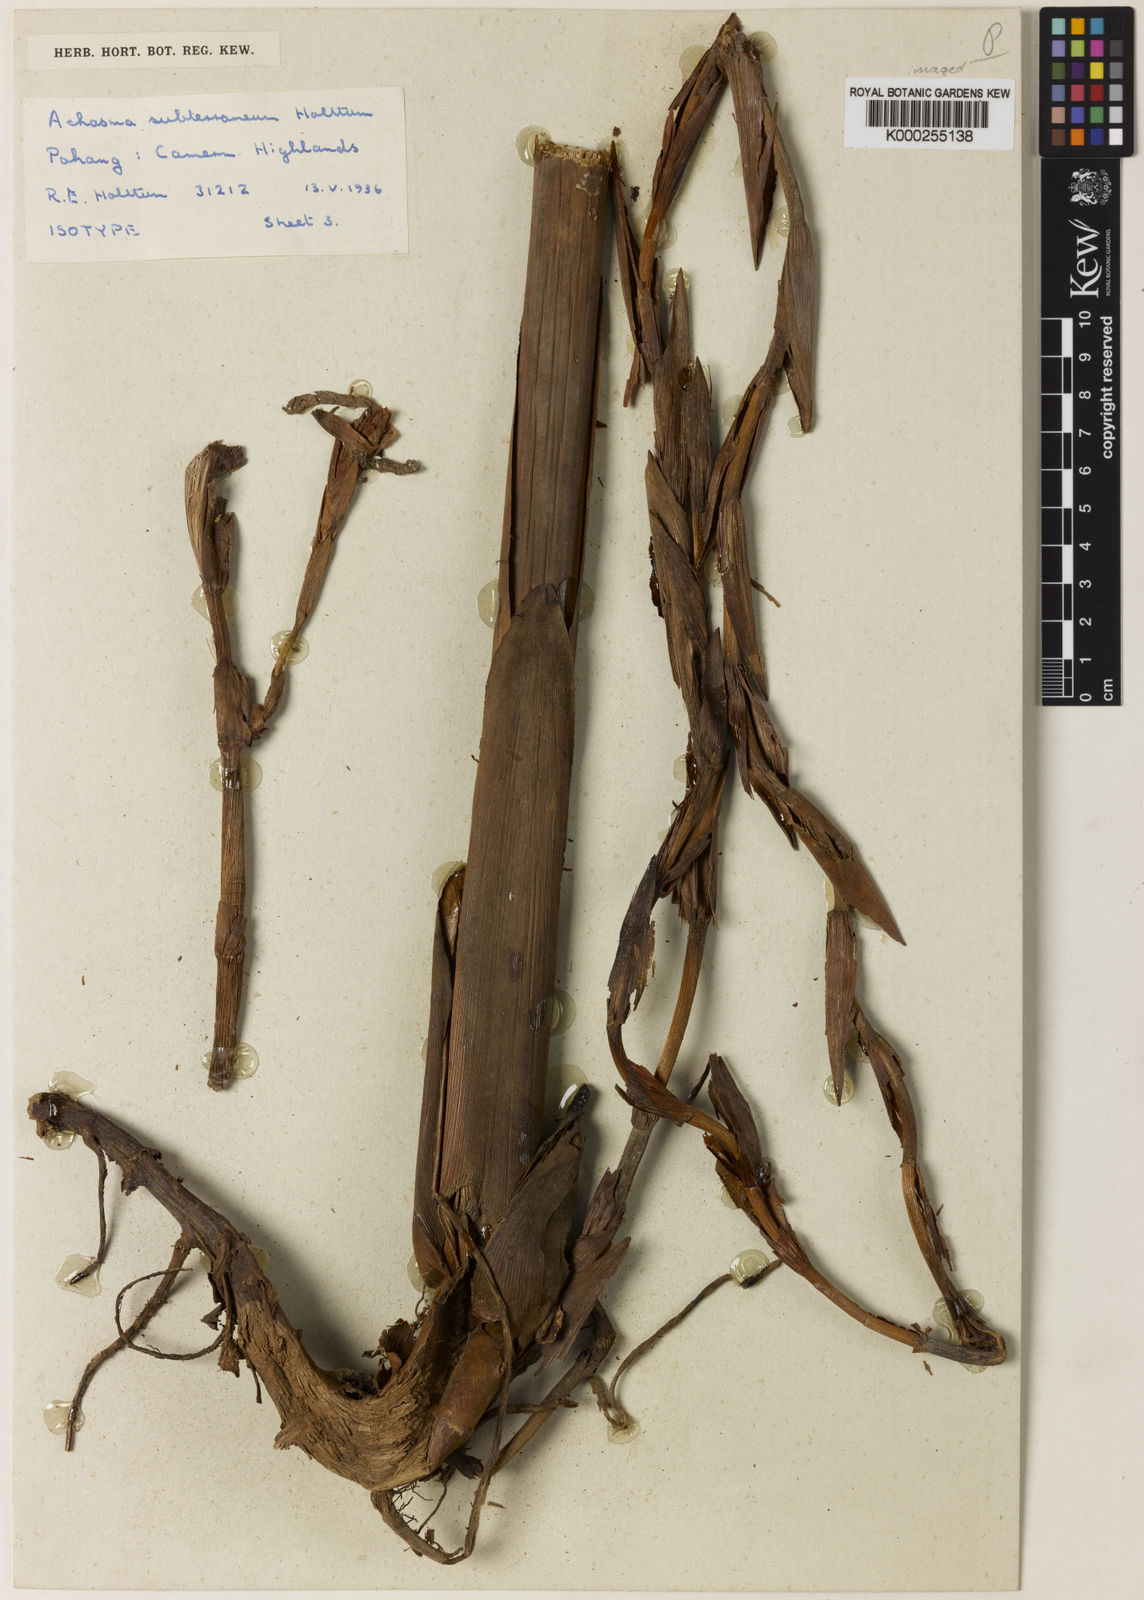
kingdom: Plantae
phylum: Tracheophyta
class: Liliopsida
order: Zingiberales
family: Zingiberaceae
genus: Etlingera
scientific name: Etlingera subterranea
